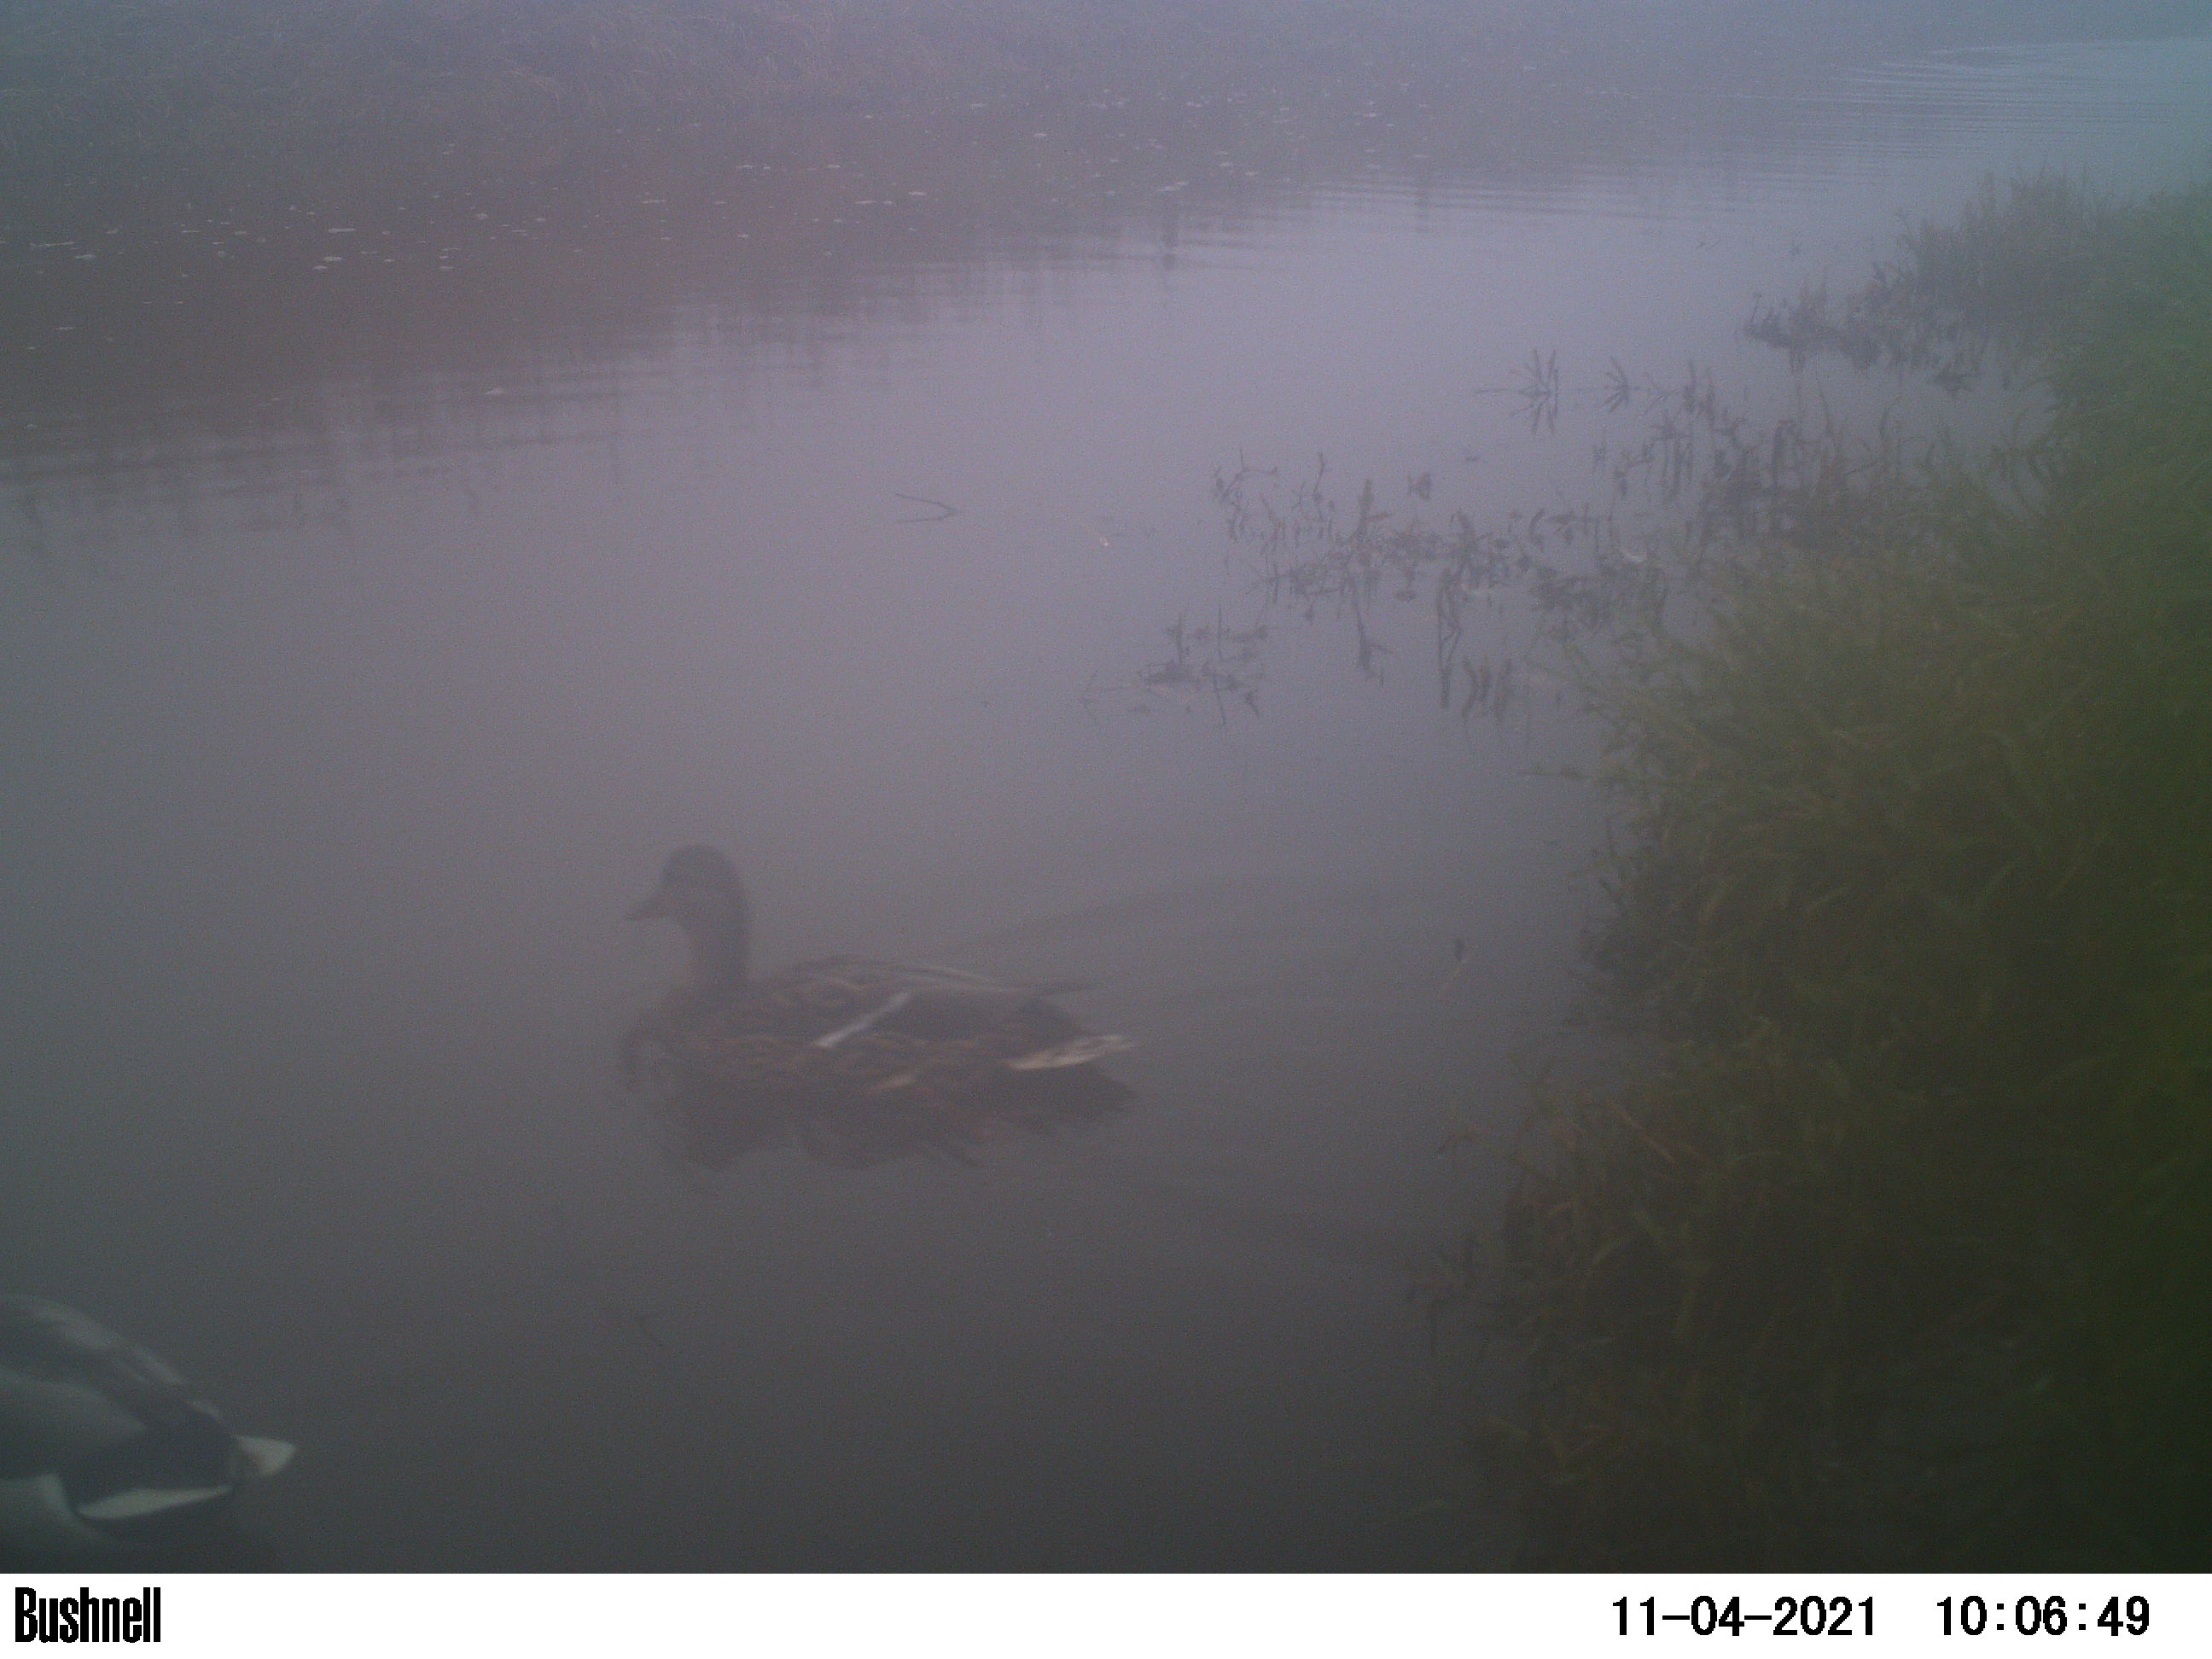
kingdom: Animalia
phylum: Chordata
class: Aves
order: Anseriformes
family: Anatidae
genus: Anas
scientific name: Anas
